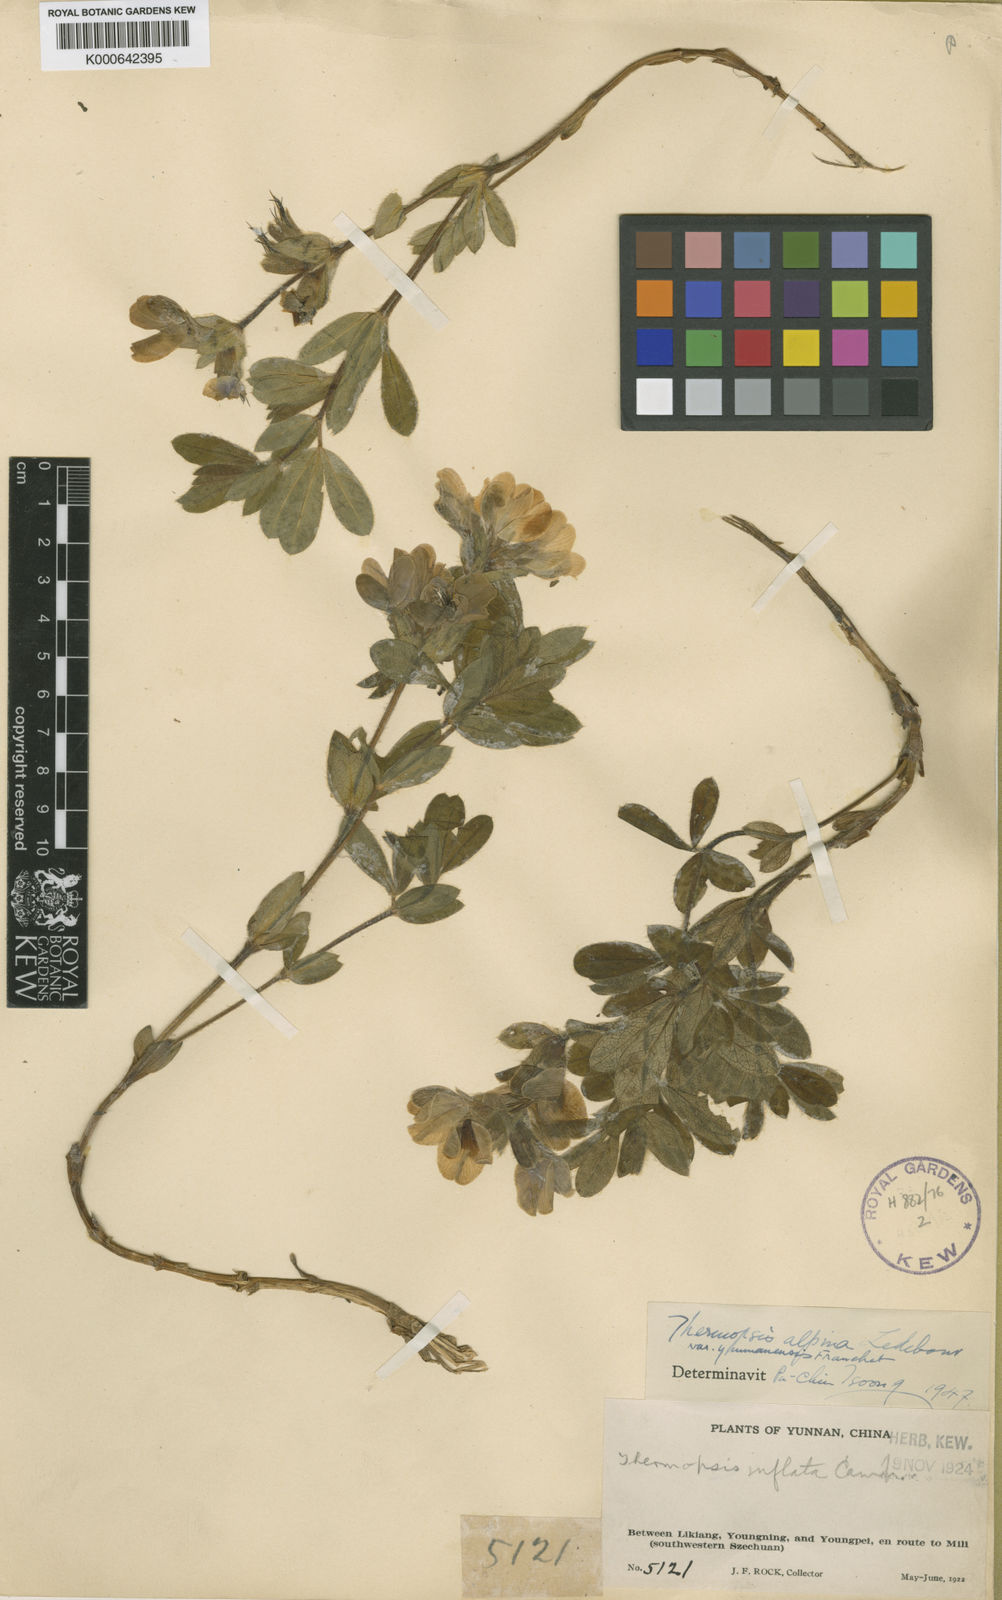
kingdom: Plantae
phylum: Tracheophyta
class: Magnoliopsida
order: Fabales
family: Fabaceae
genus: Thermopsis
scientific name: Thermopsis alpina
